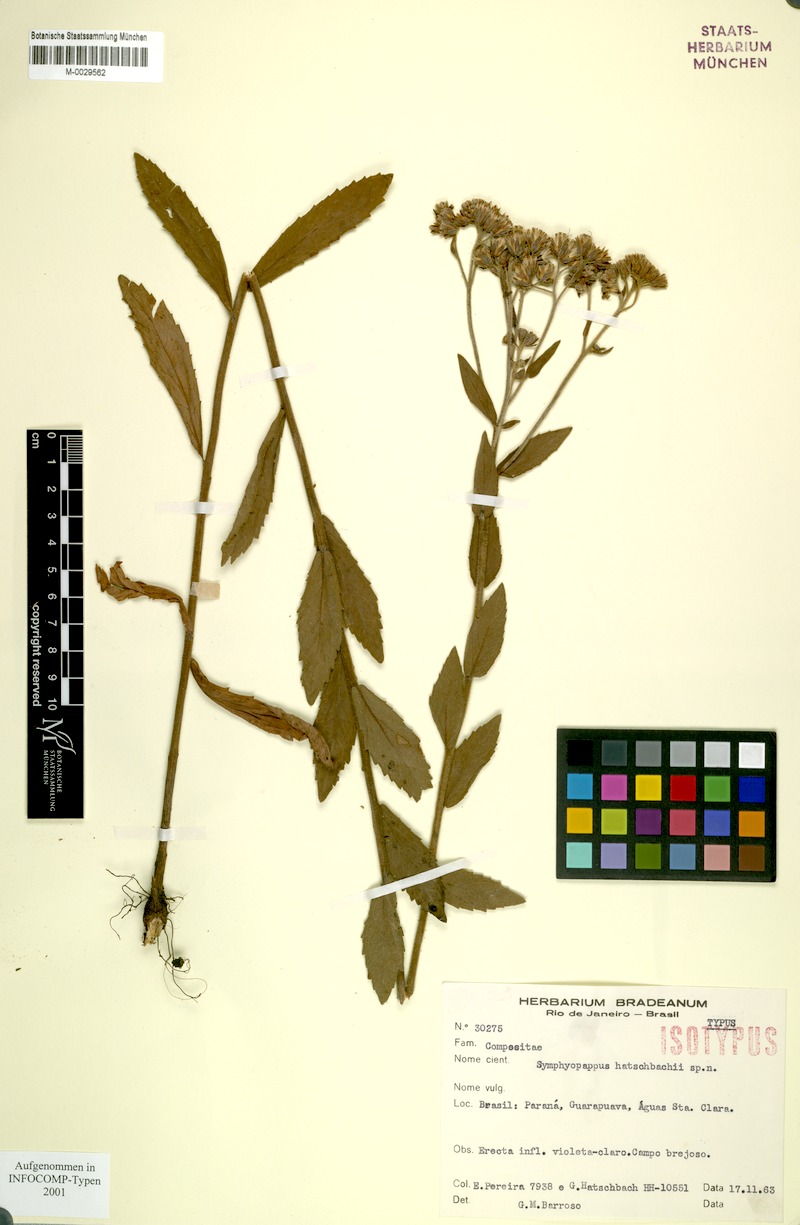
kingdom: Plantae
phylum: Tracheophyta
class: Magnoliopsida
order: Asterales
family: Asteraceae
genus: Symphyopappus
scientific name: Symphyopappus
